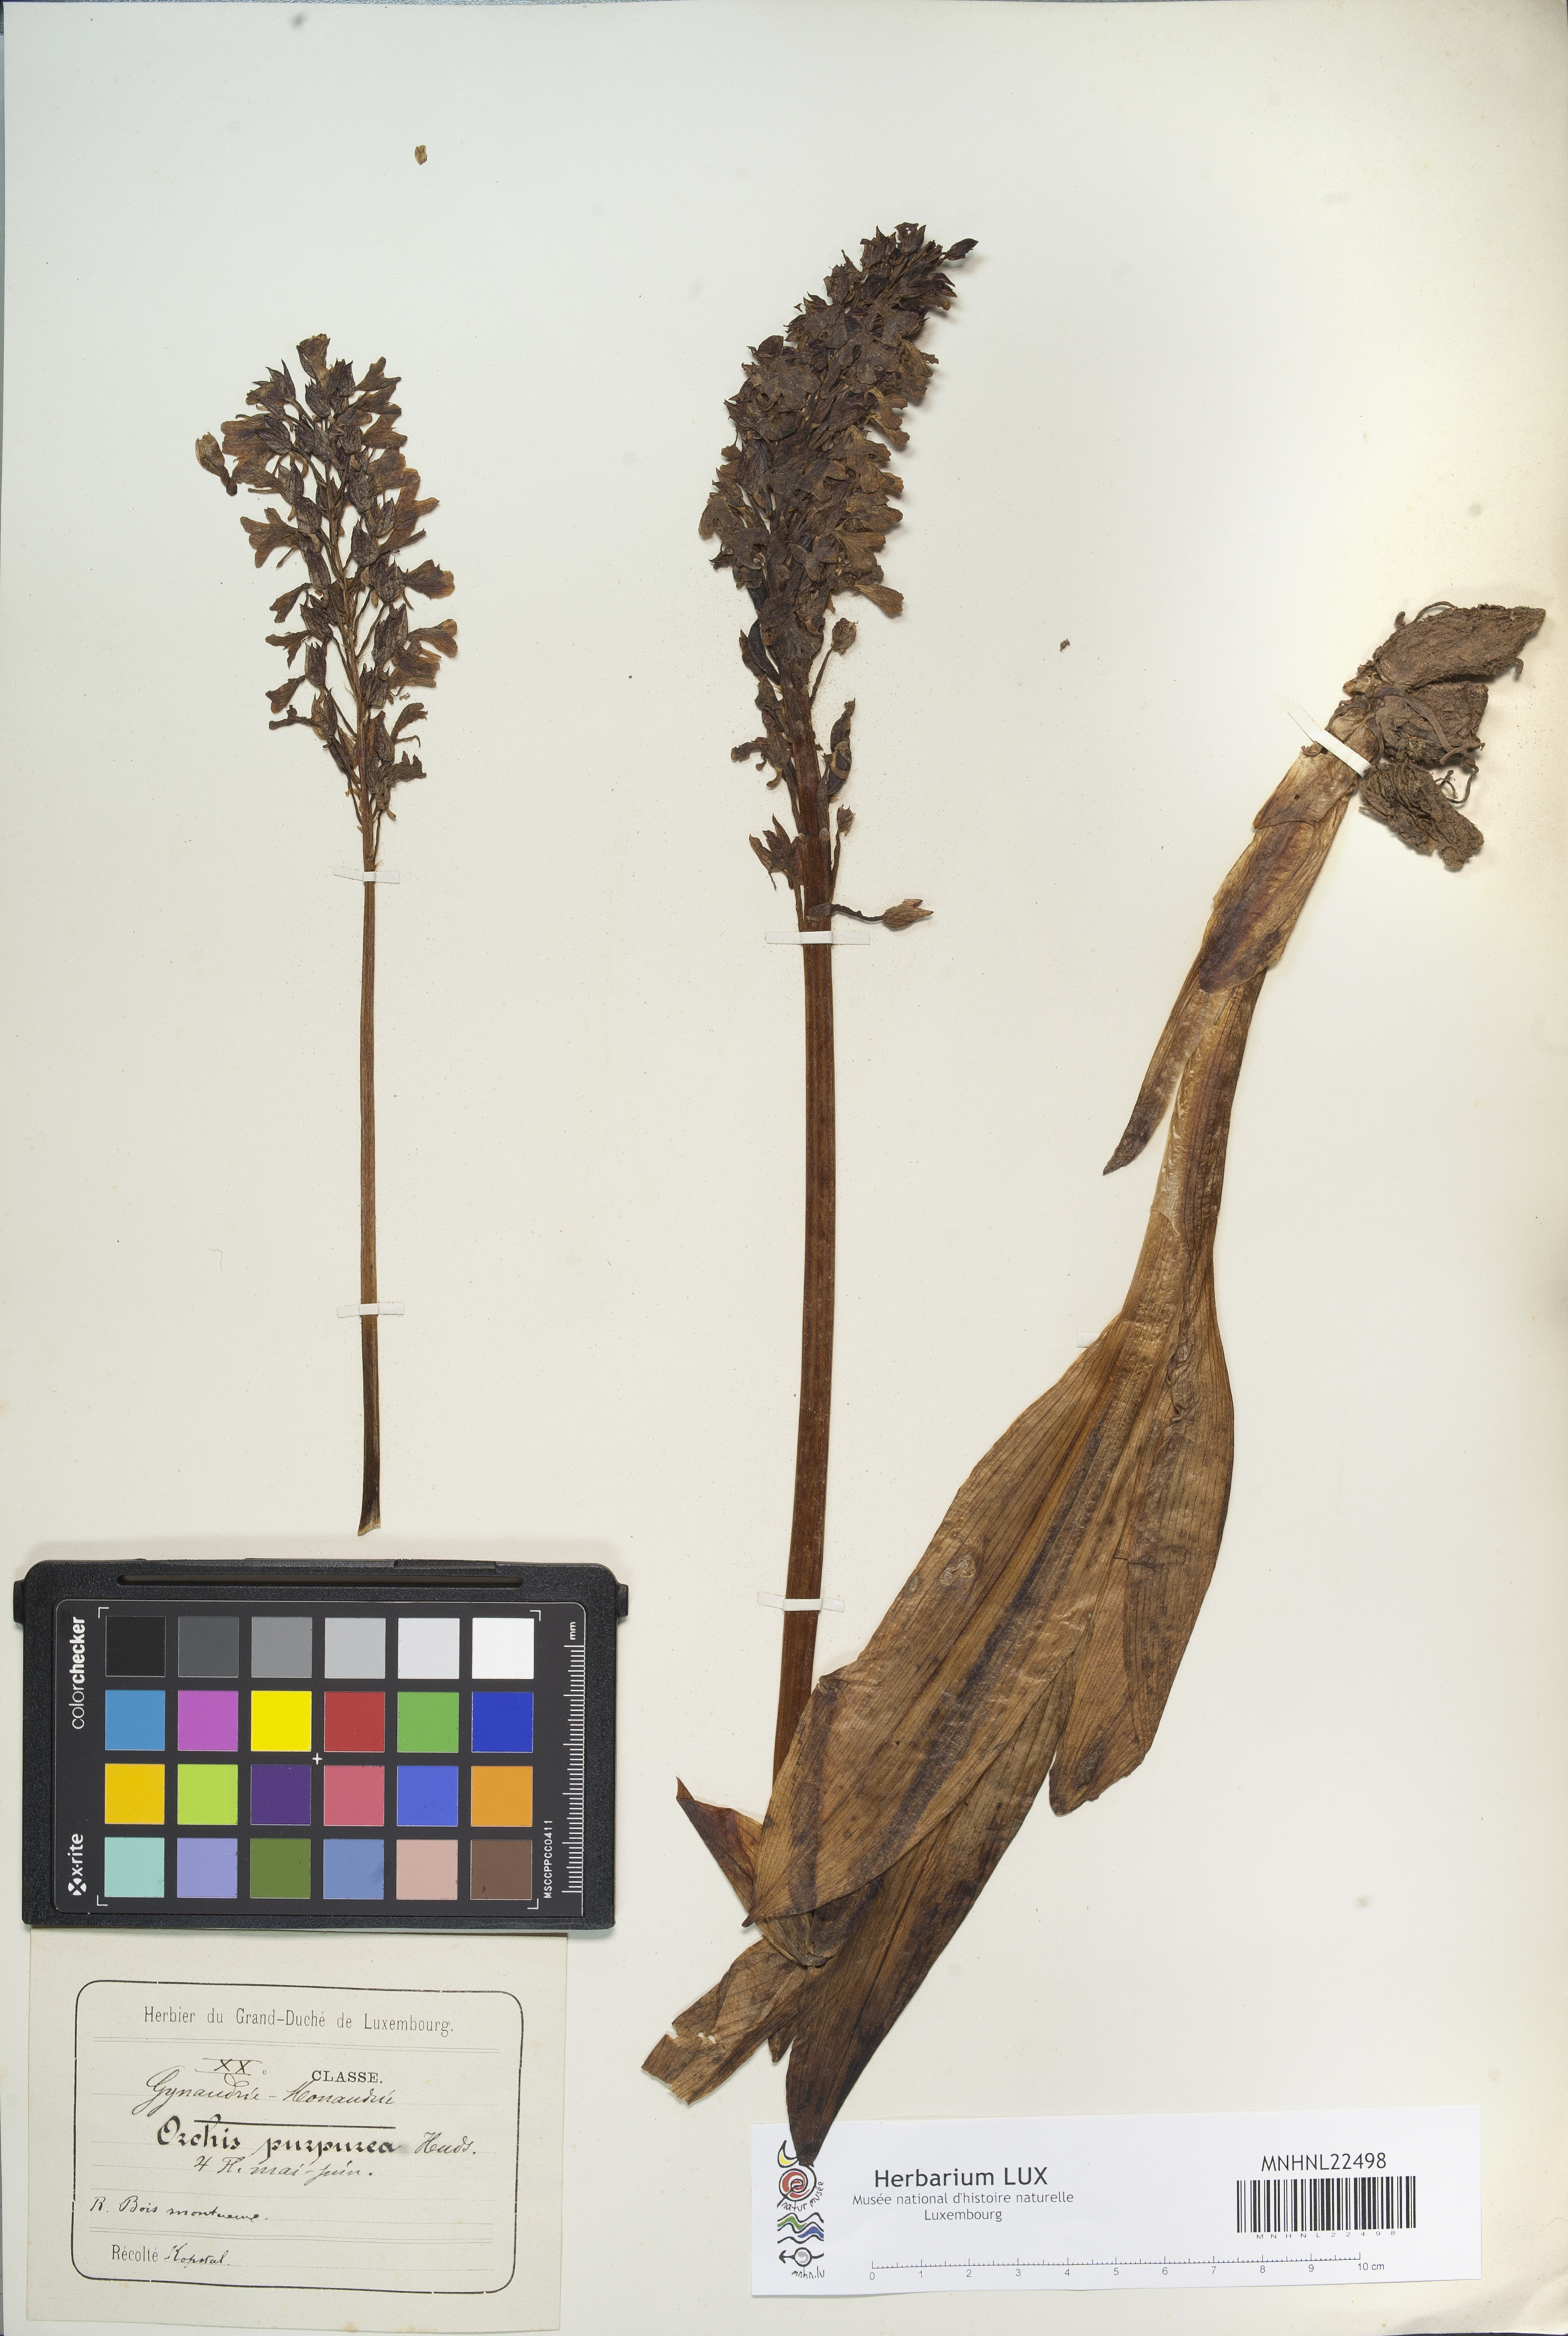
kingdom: Plantae
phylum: Tracheophyta
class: Liliopsida
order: Asparagales
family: Orchidaceae
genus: Orchis
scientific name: Orchis purpurea
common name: Lady orchid
